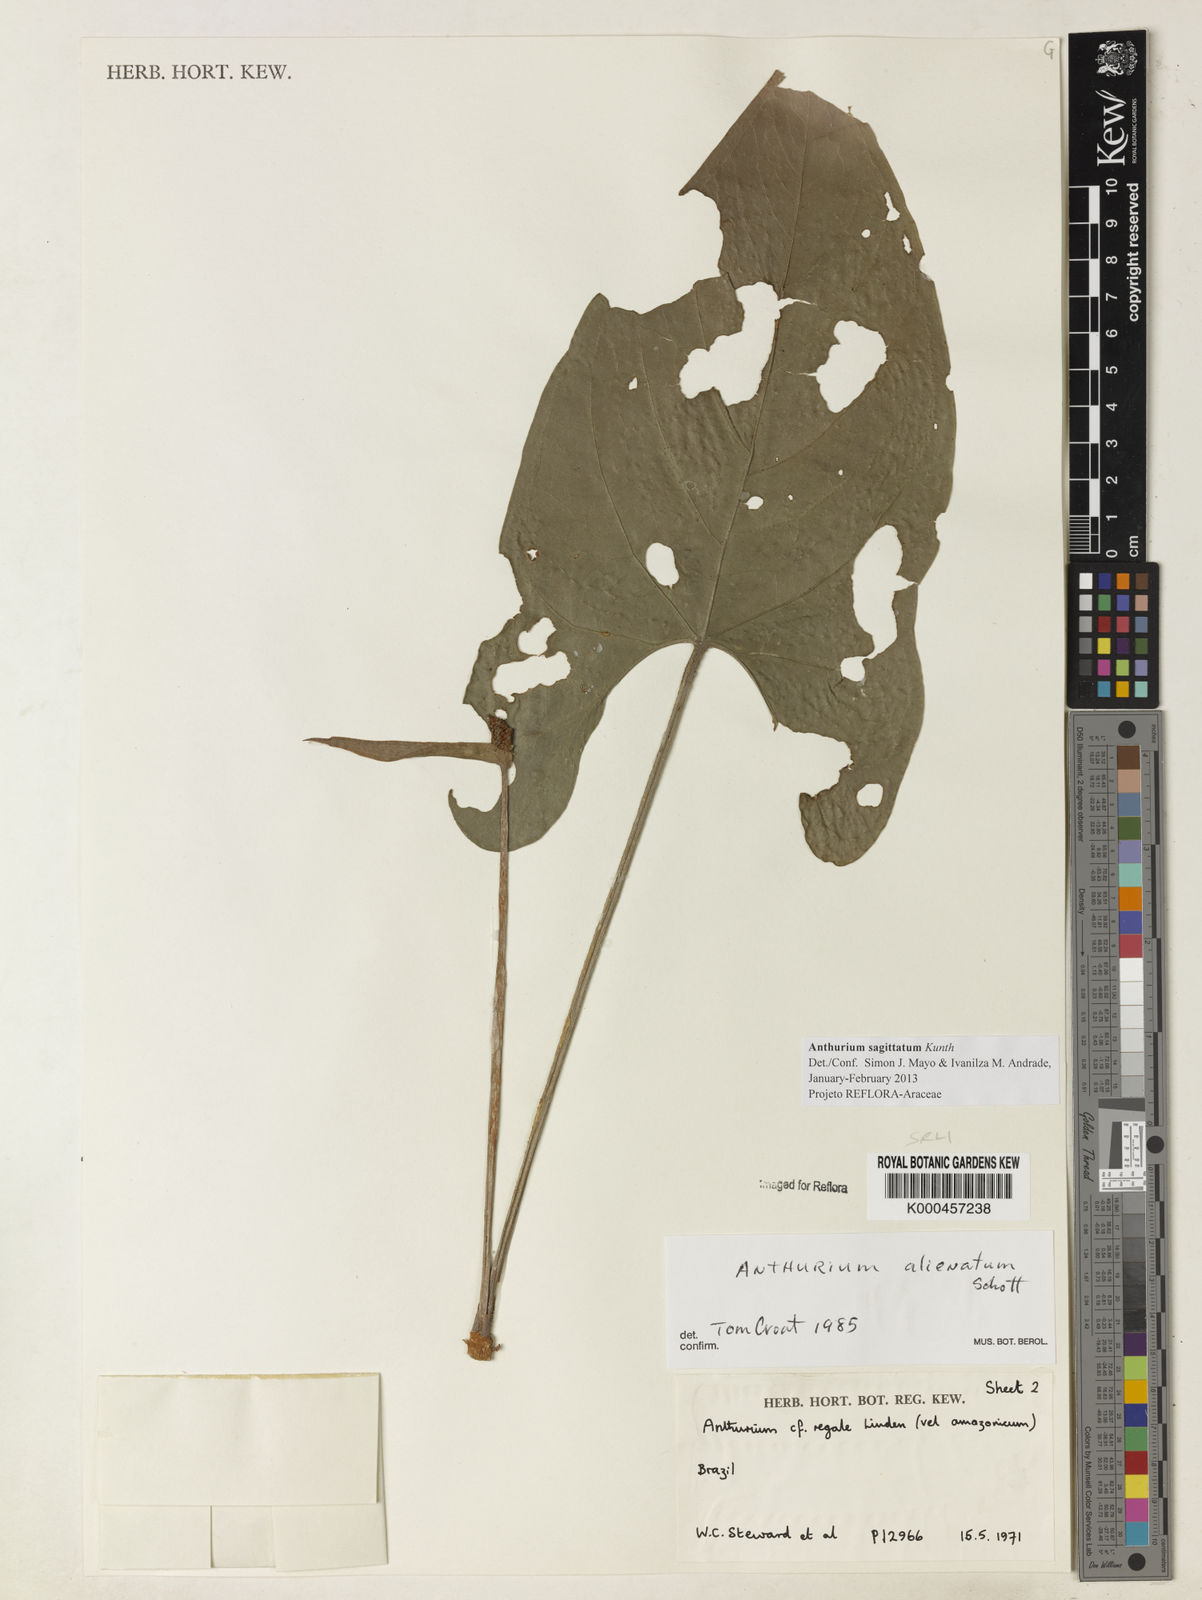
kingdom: Plantae
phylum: Tracheophyta
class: Liliopsida
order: Alismatales
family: Araceae
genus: Anthurium
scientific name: Anthurium sagittatum
